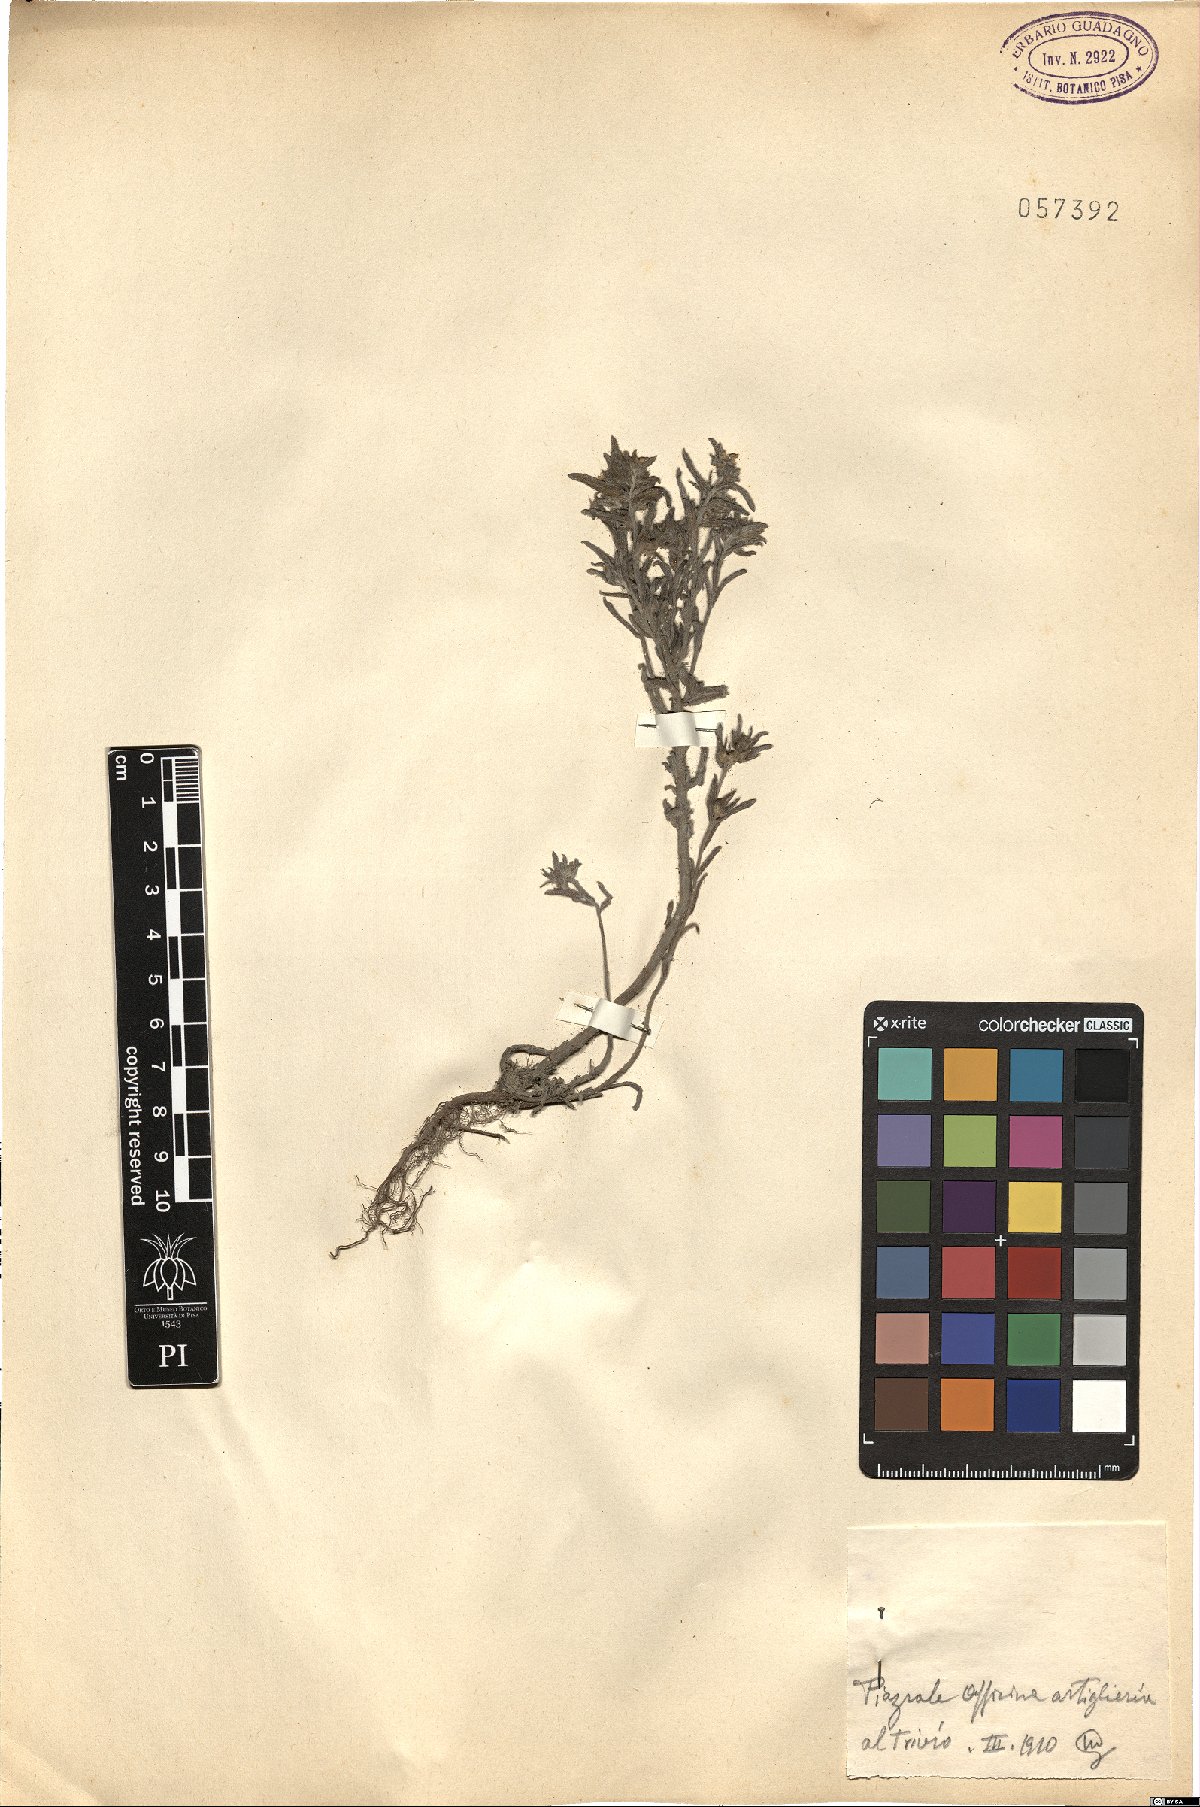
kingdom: Plantae
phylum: Tracheophyta
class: Magnoliopsida
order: Boraginales
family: Boraginaceae
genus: Lithospermum
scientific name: Lithospermum
